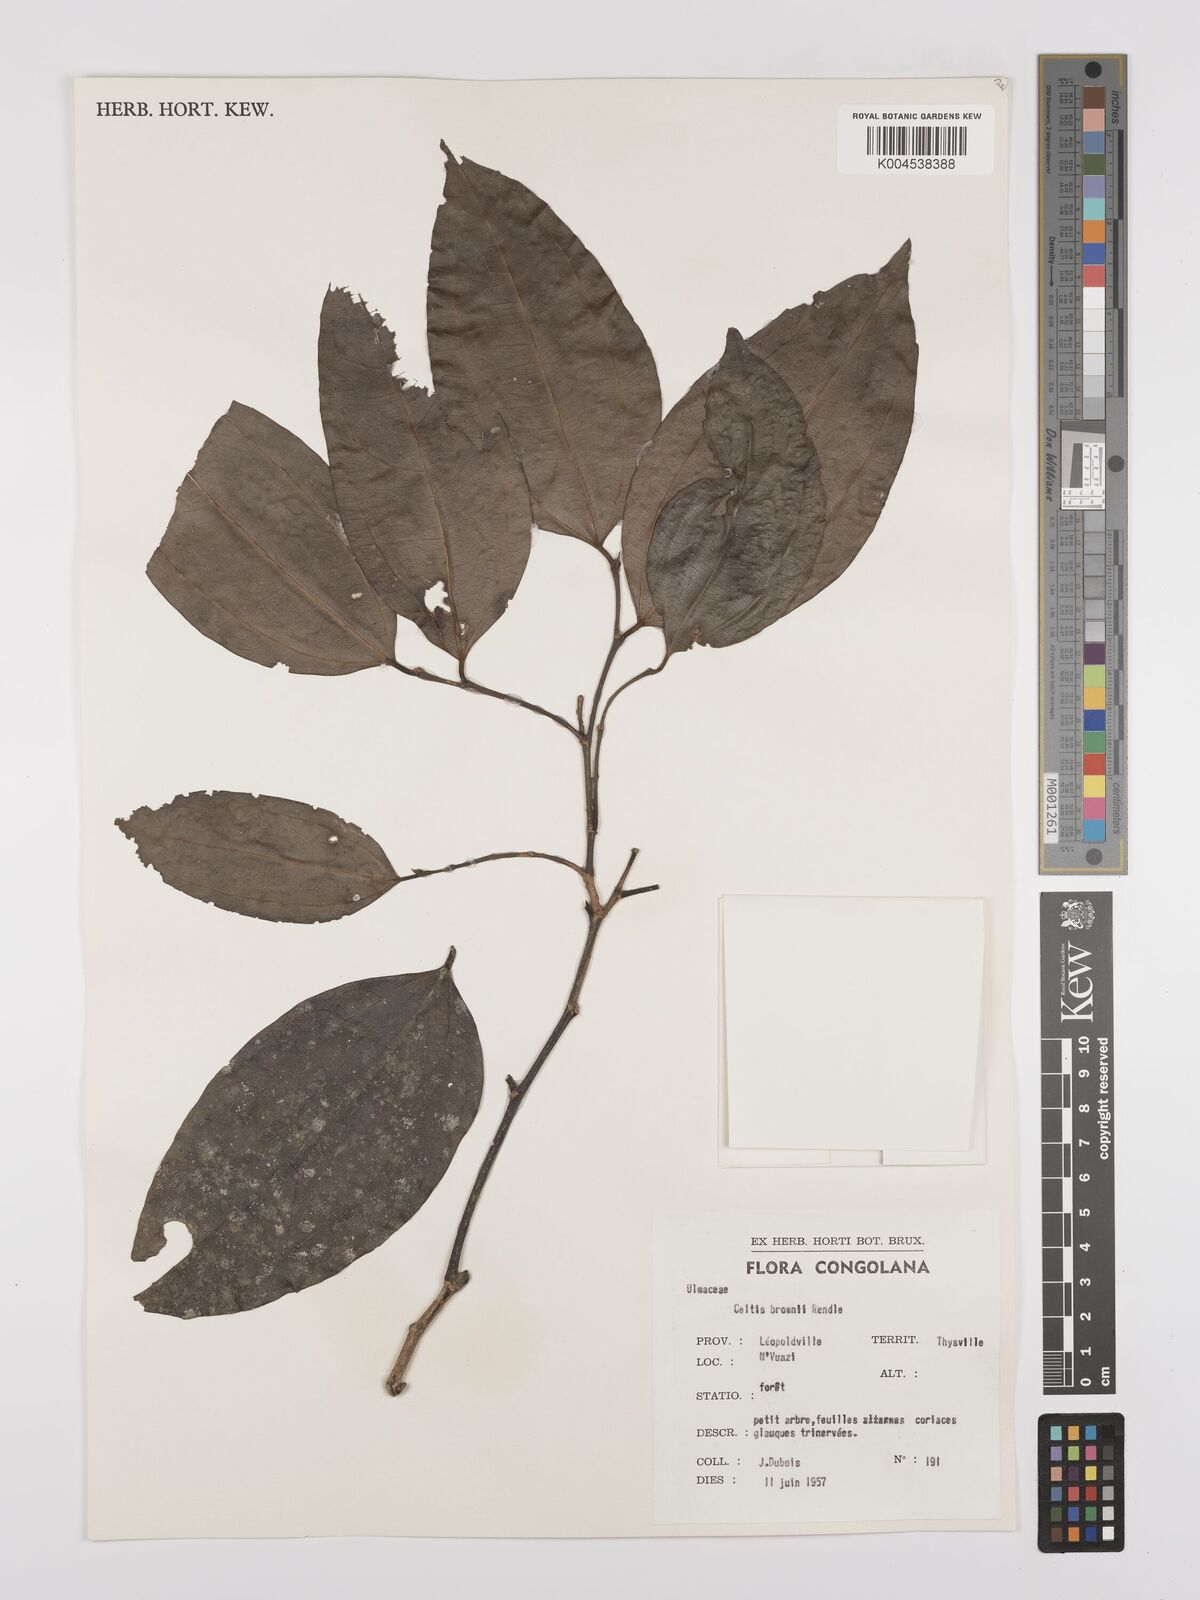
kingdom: Plantae
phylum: Tracheophyta
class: Magnoliopsida
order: Rosales
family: Cannabaceae
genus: Celtis
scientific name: Celtis philippensis
